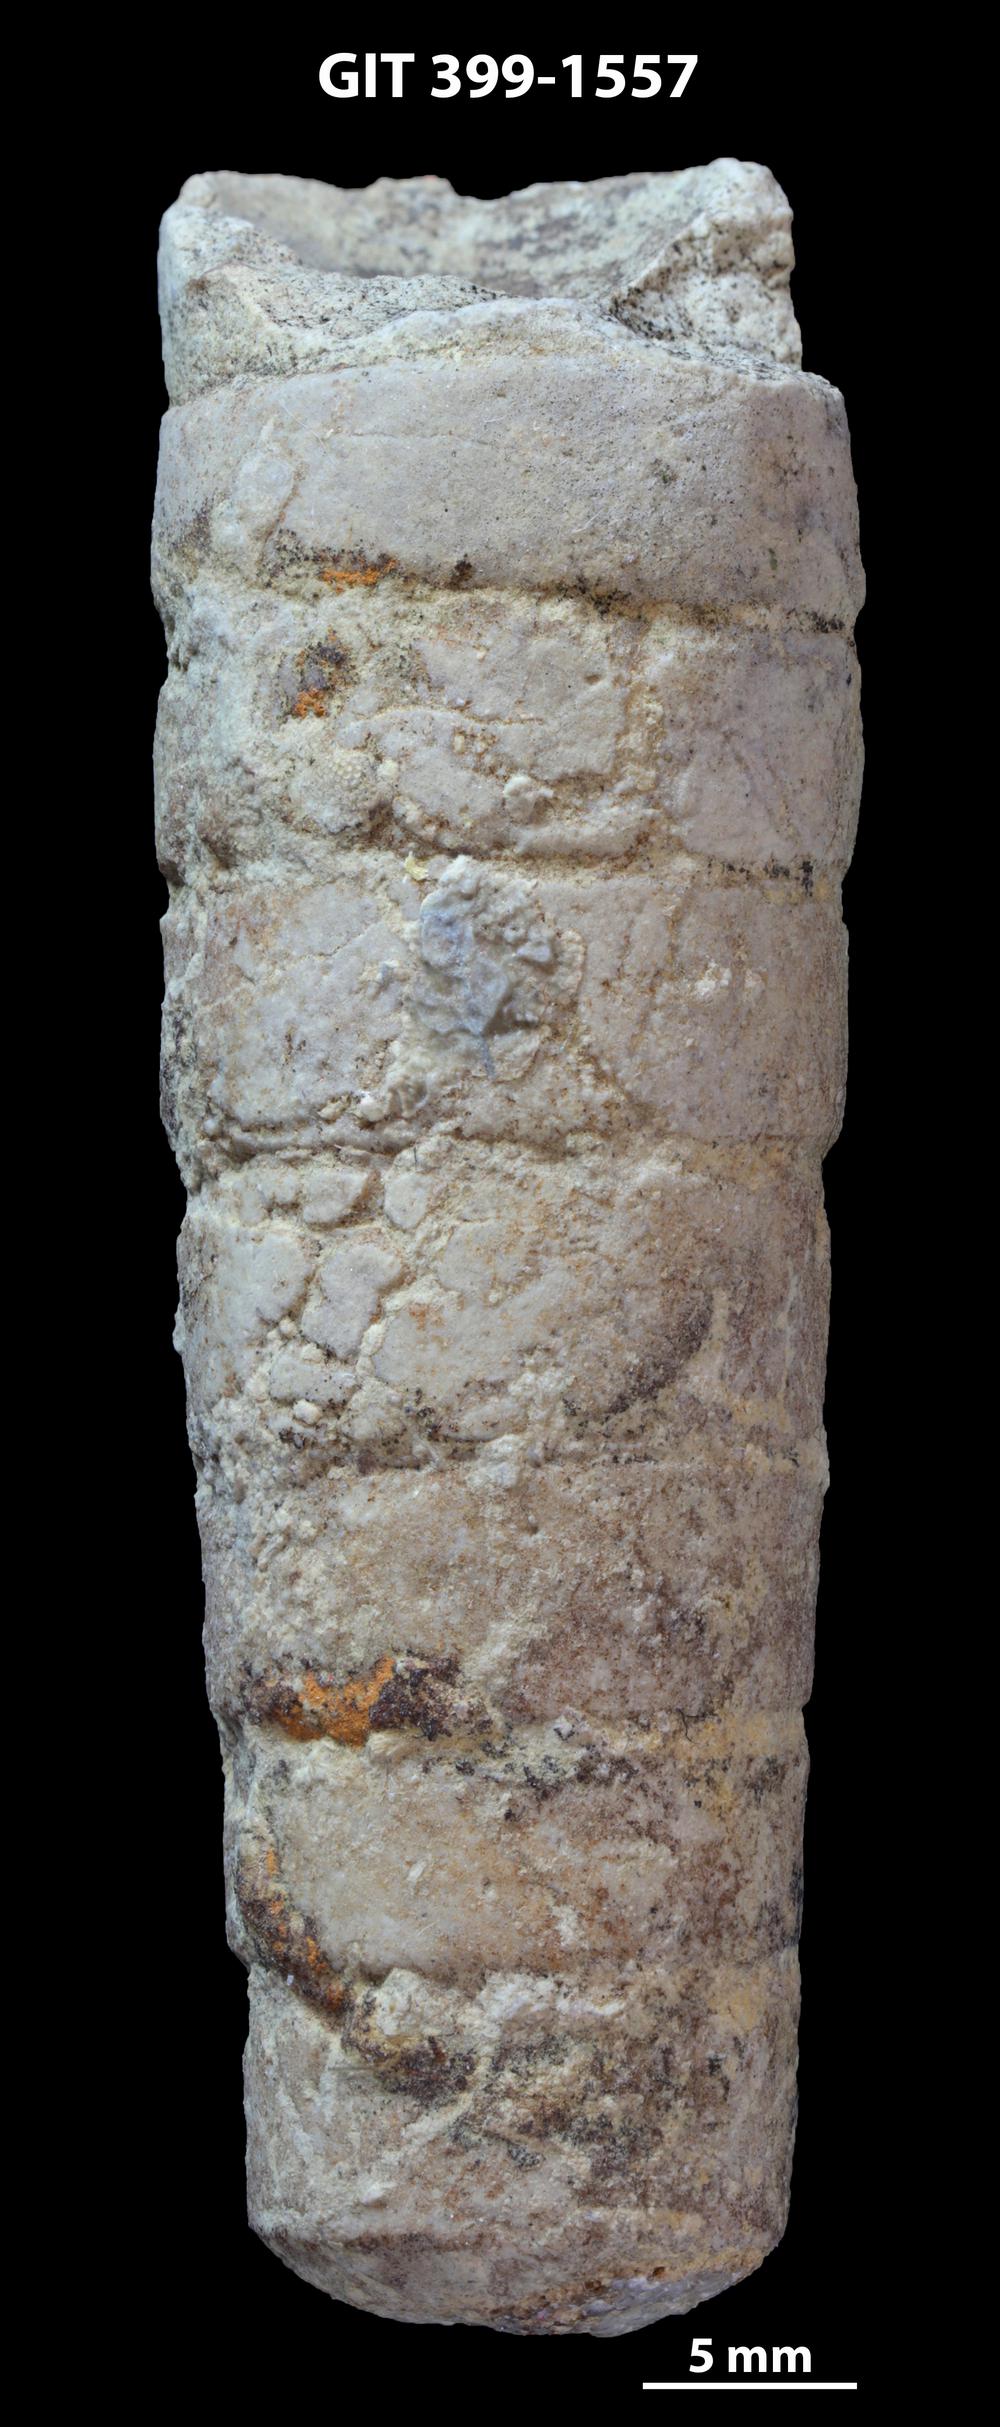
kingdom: Animalia
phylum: Mollusca
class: Cephalopoda
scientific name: Cephalopoda
